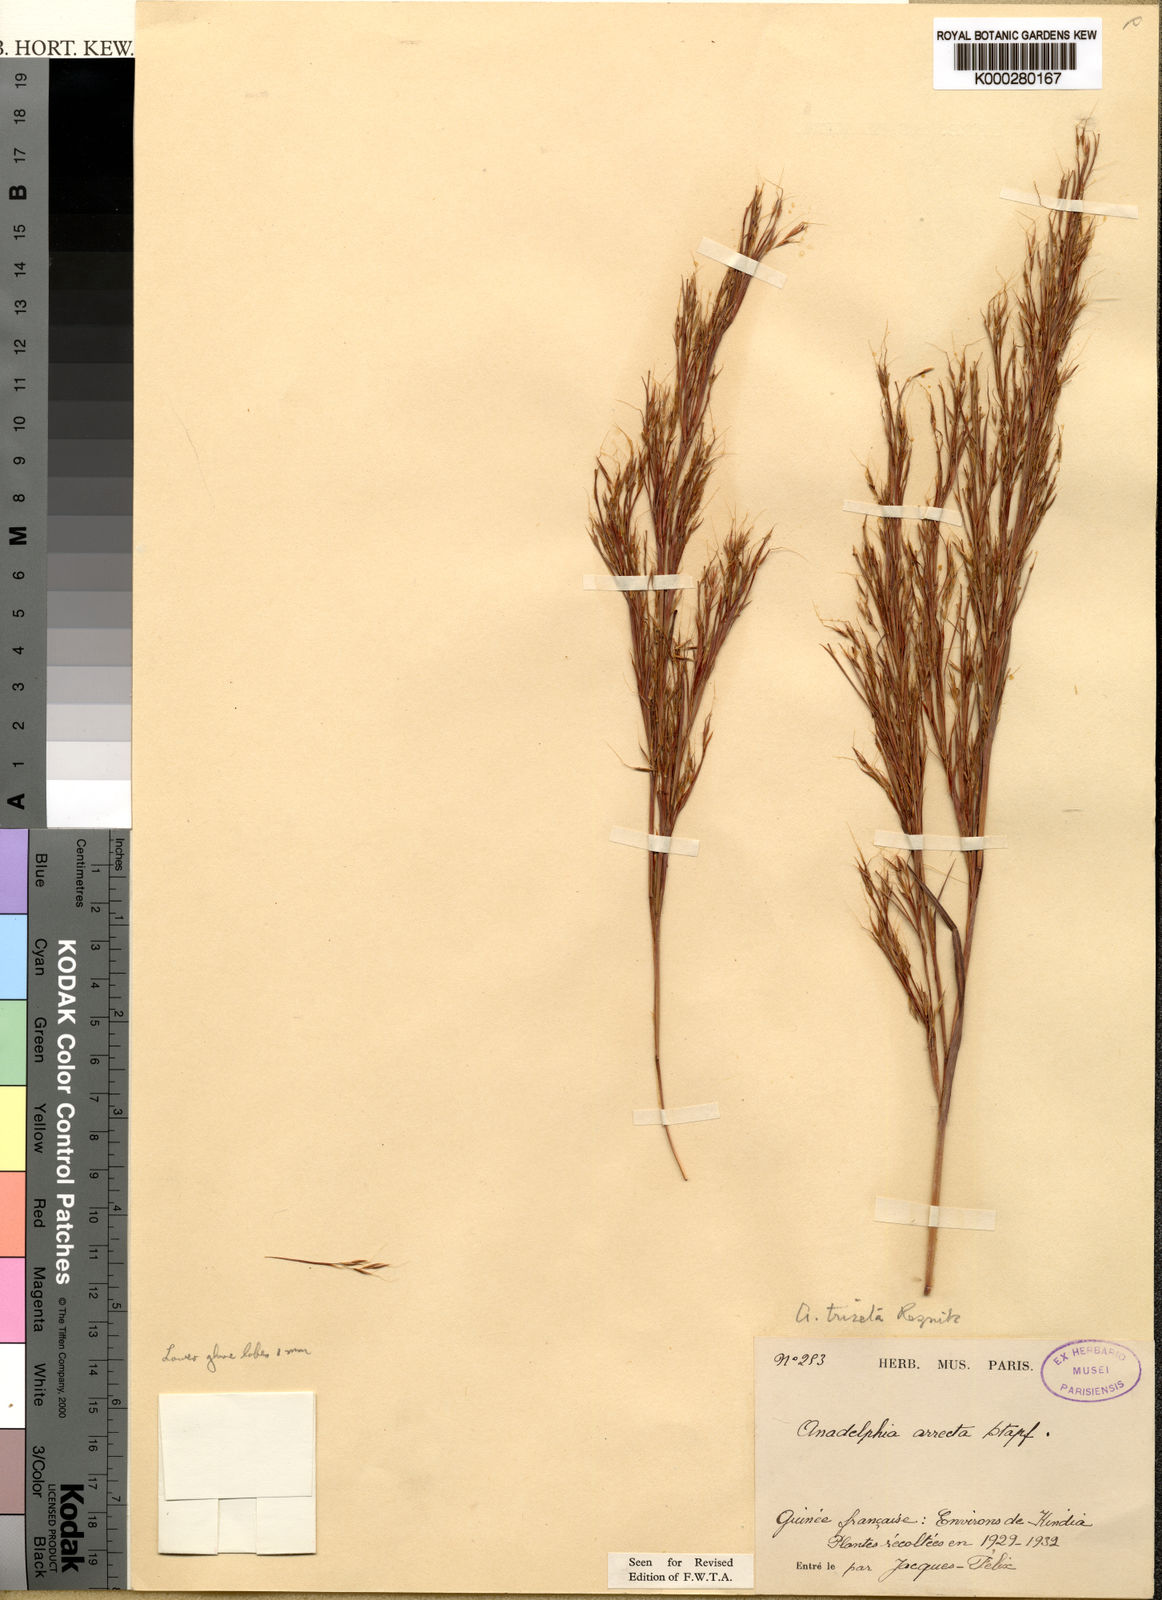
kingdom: Plantae
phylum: Tracheophyta
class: Liliopsida
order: Poales
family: Poaceae
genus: Anadelphia
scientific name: Anadelphia leptocoma
